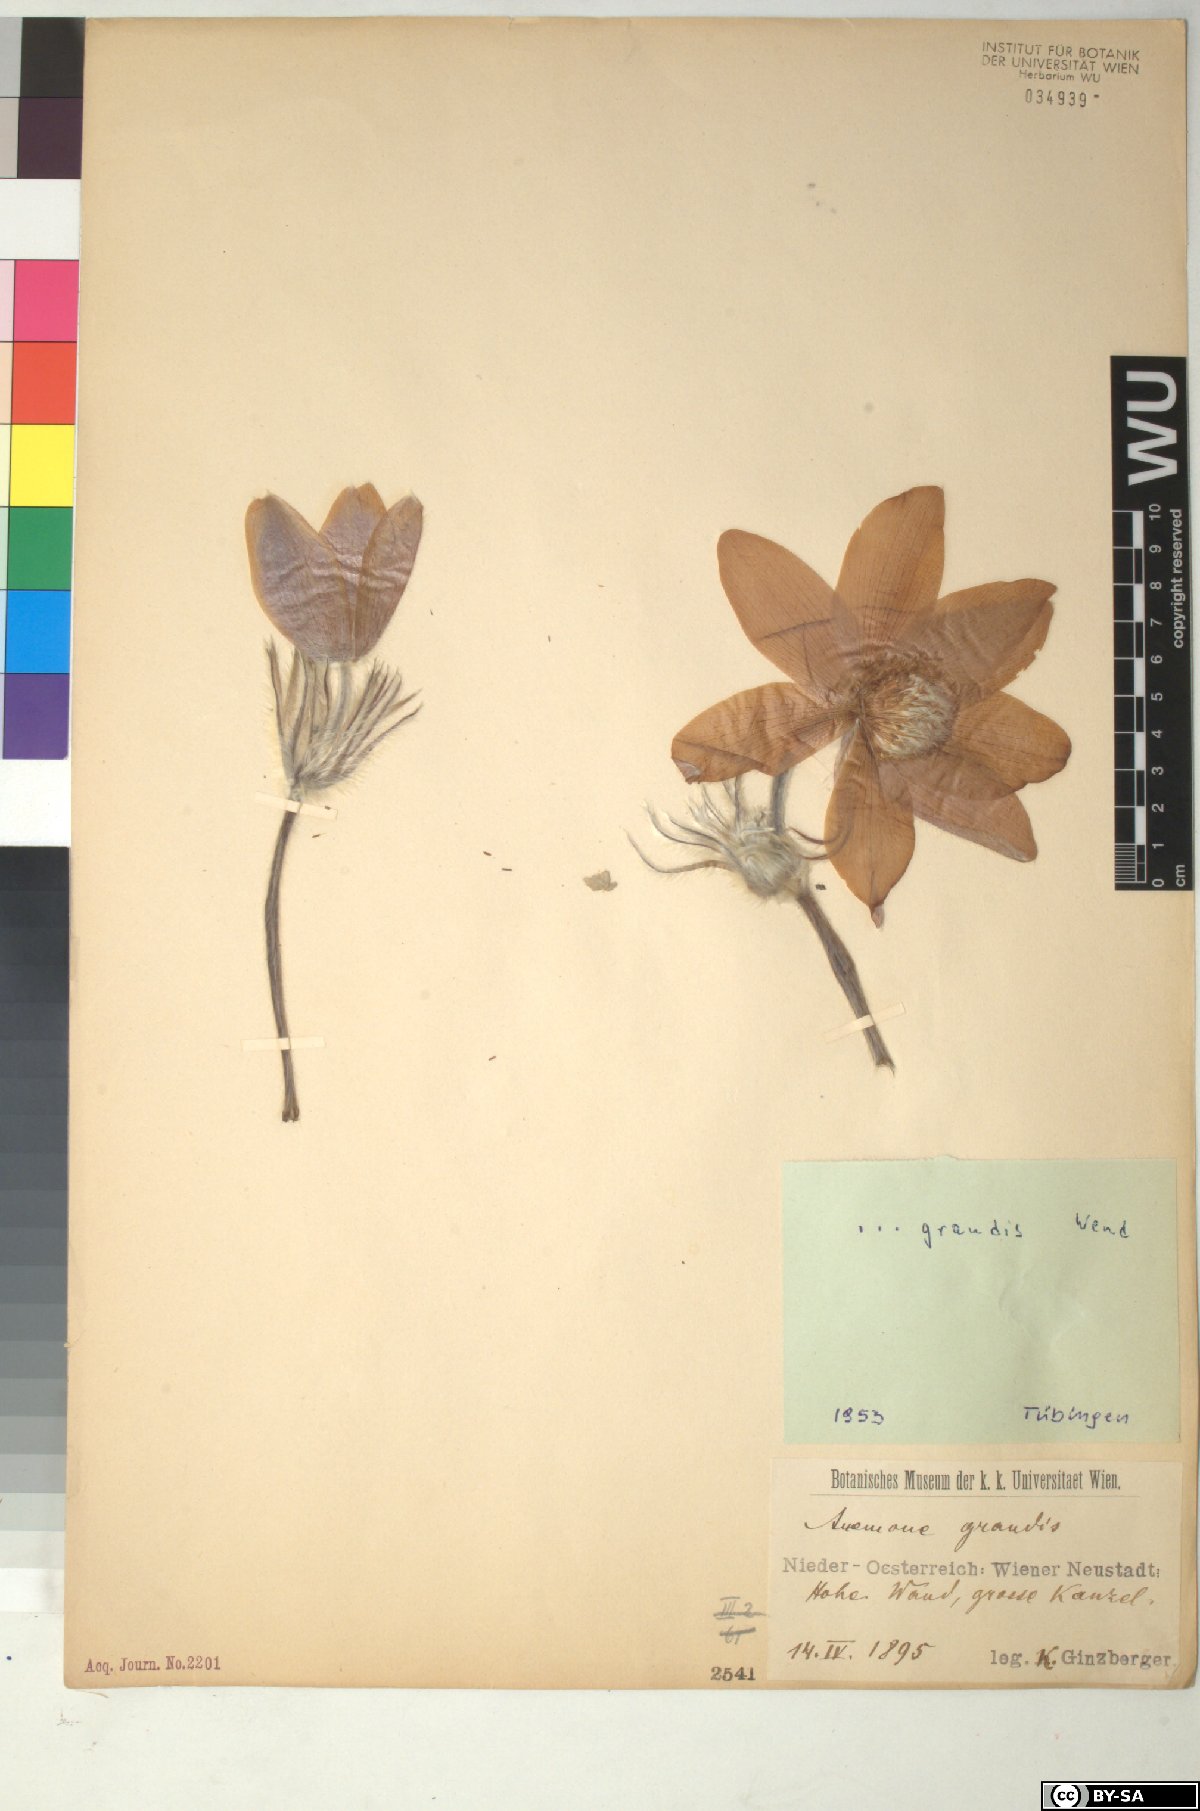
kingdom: Plantae
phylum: Tracheophyta
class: Magnoliopsida
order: Ranunculales
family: Ranunculaceae
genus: Pulsatilla
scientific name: Pulsatilla grandis
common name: Greater pasque flower
